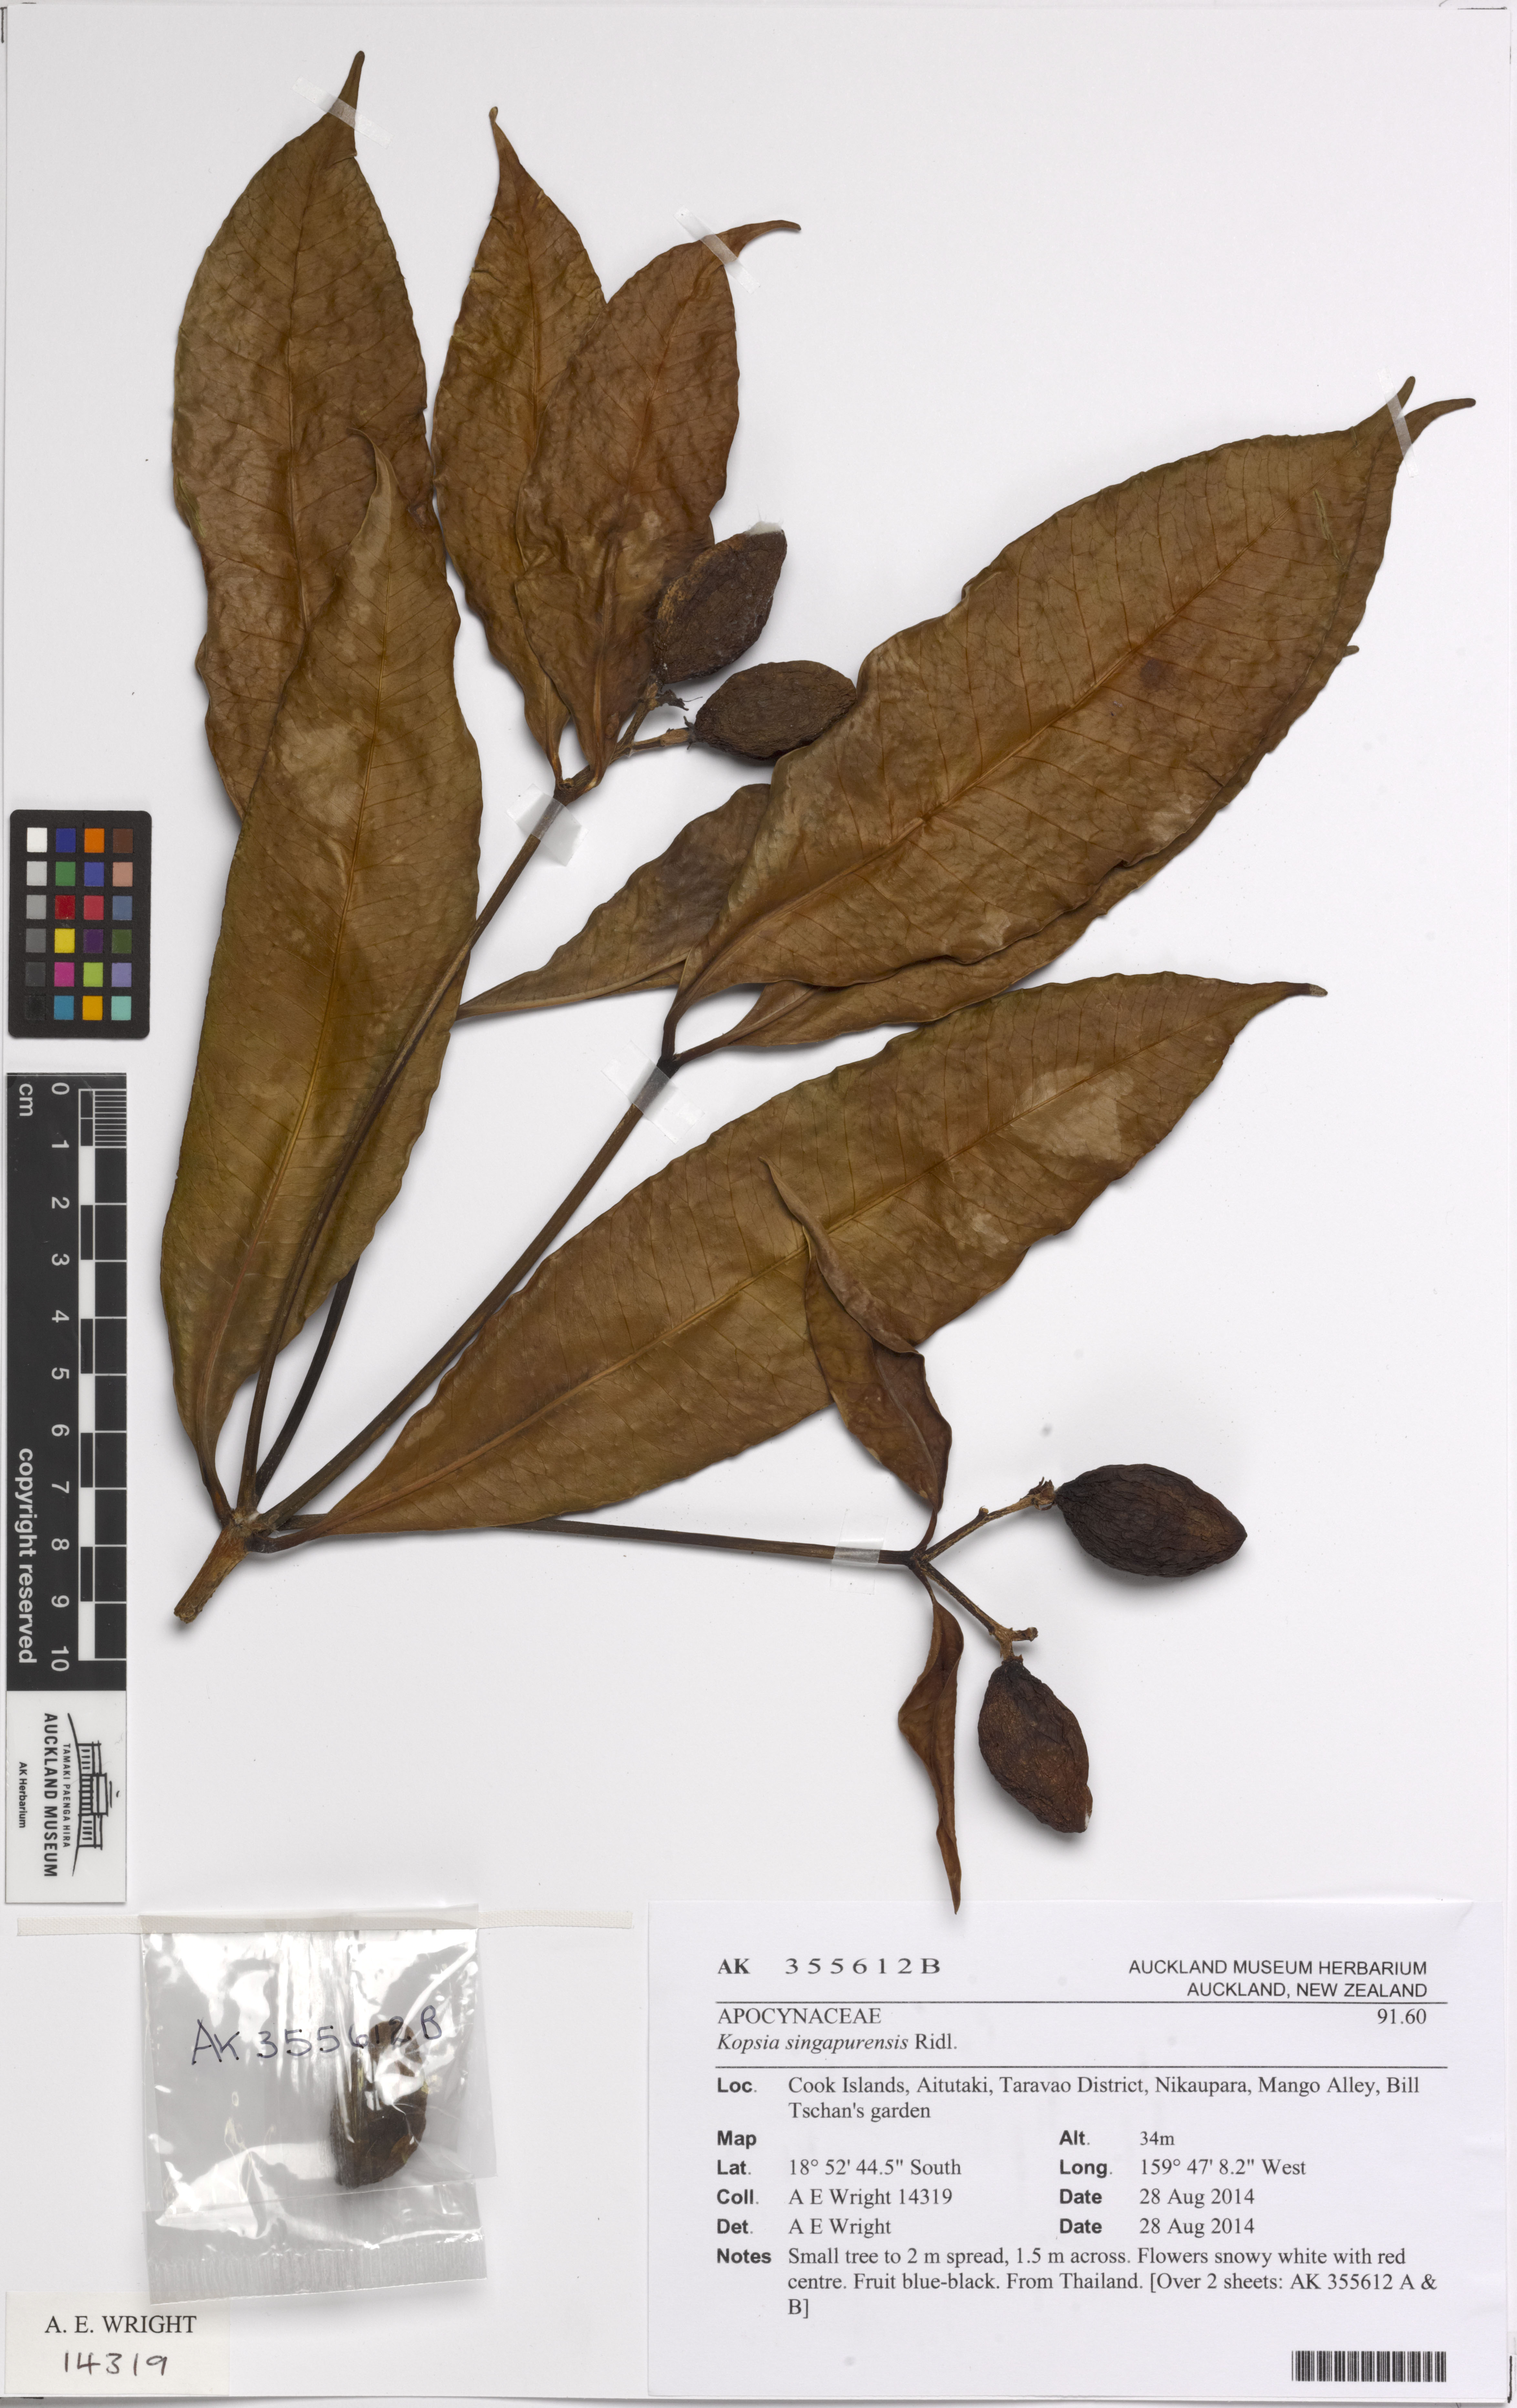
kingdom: Plantae
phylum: Tracheophyta
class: Magnoliopsida
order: Gentianales
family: Apocynaceae
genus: Kopsia
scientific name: Kopsia singapurensis
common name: White kopsia
